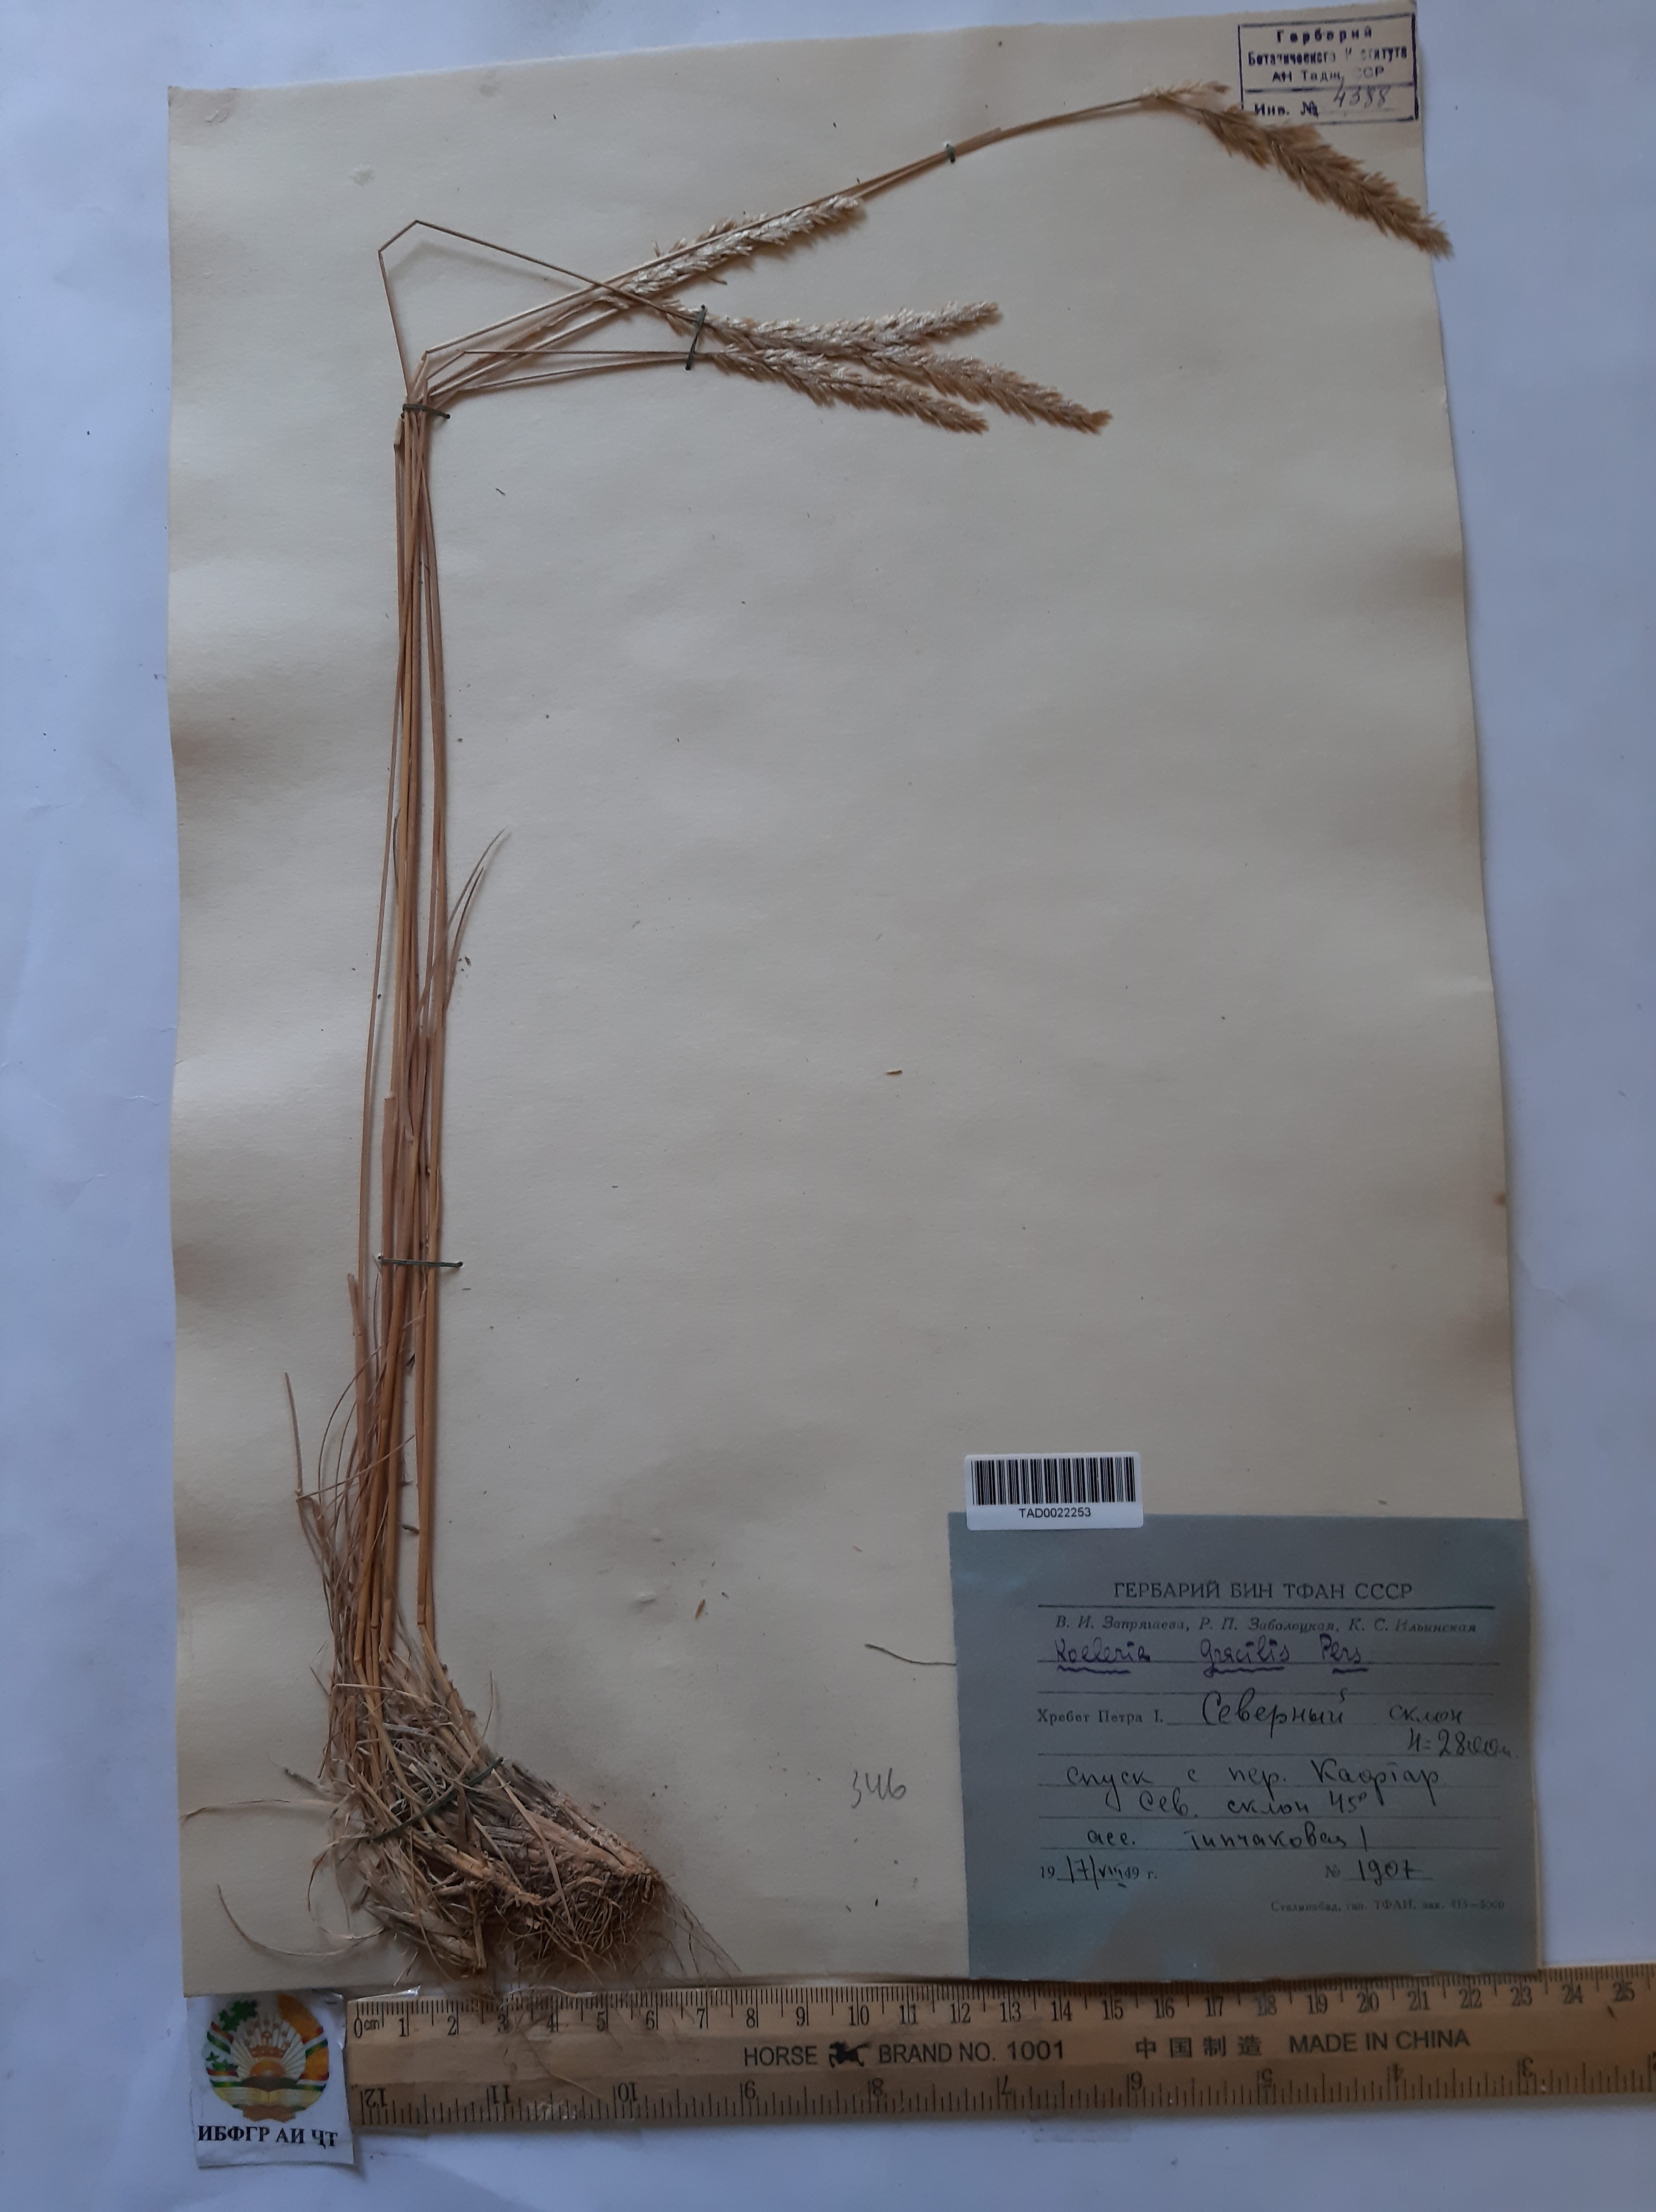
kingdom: Plantae
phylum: Tracheophyta
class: Liliopsida
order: Poales
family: Poaceae
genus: Koeleria
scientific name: Koeleria macrantha
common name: Crested hair-grass
